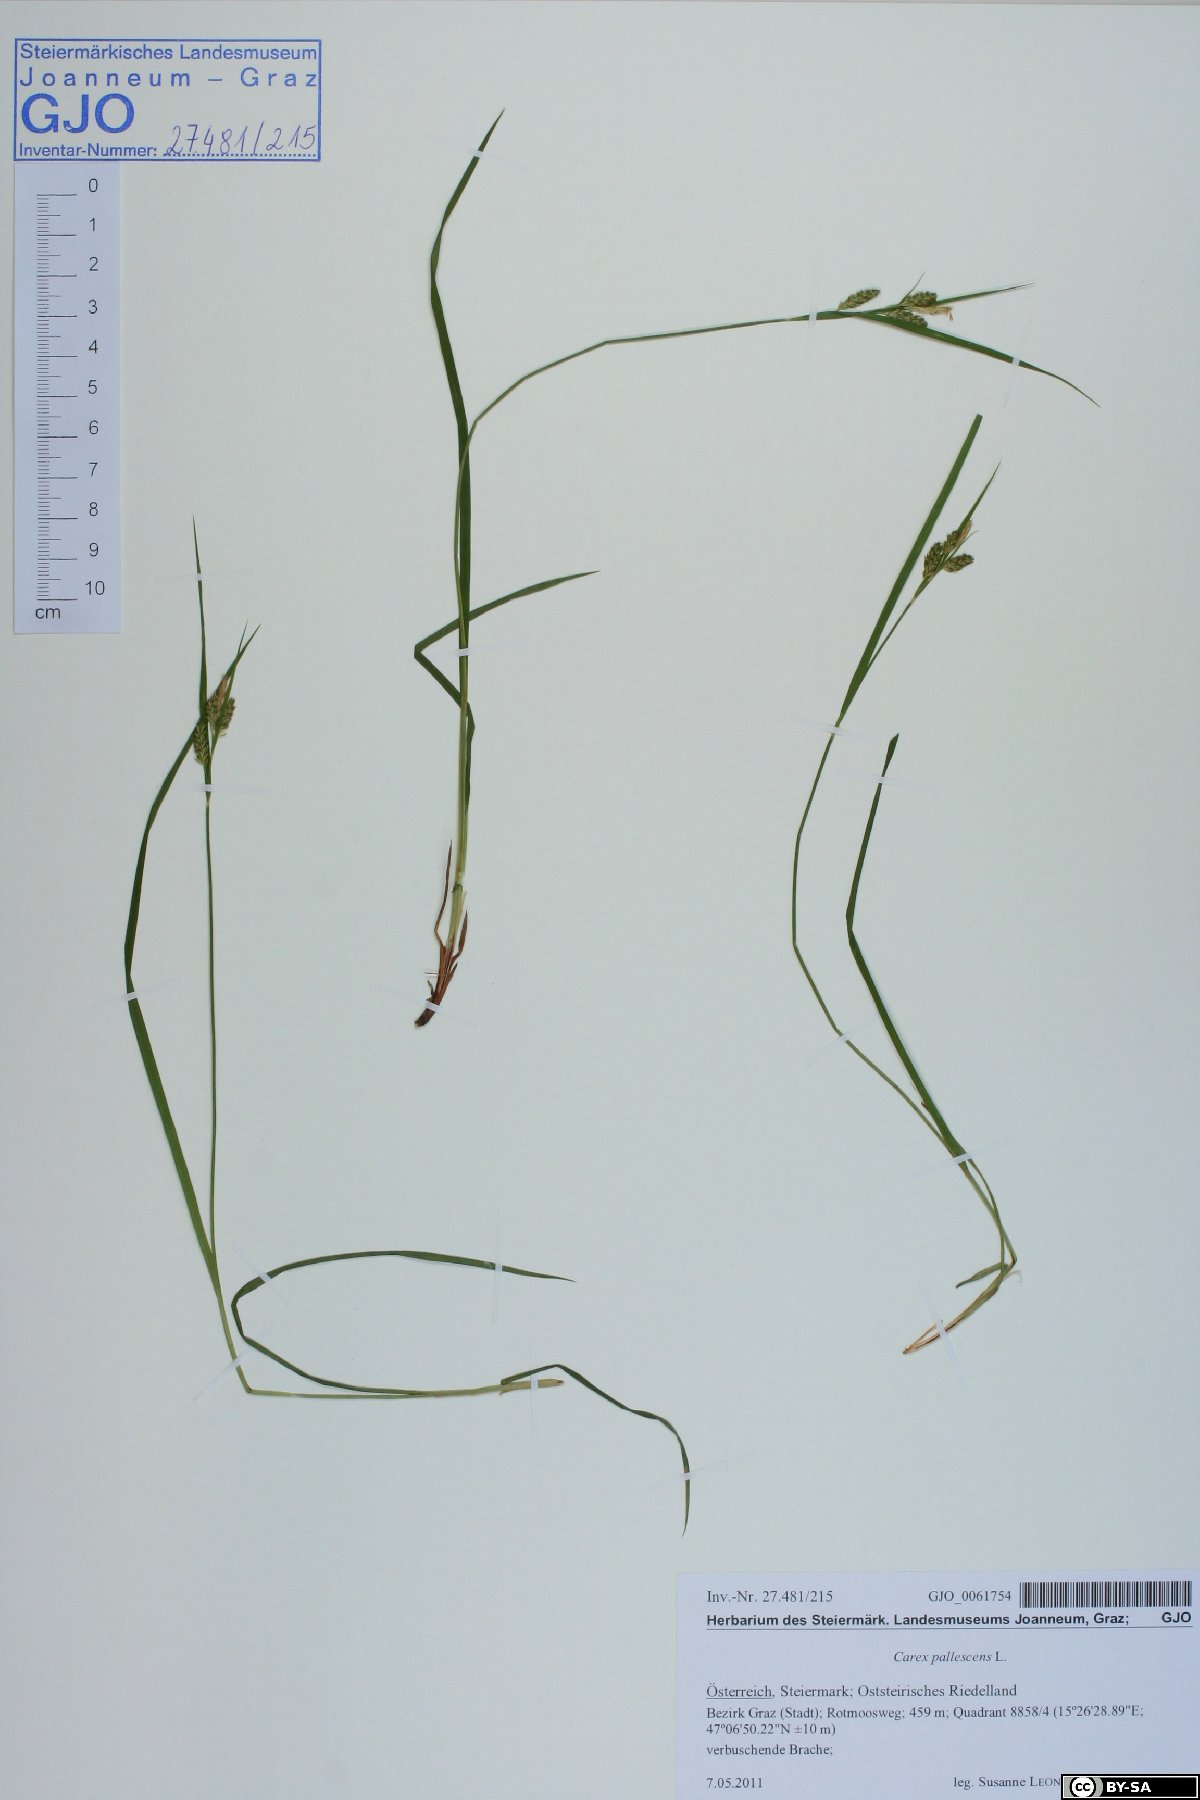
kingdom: Plantae
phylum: Tracheophyta
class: Liliopsida
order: Poales
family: Cyperaceae
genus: Carex
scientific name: Carex pallescens
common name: Pale sedge
